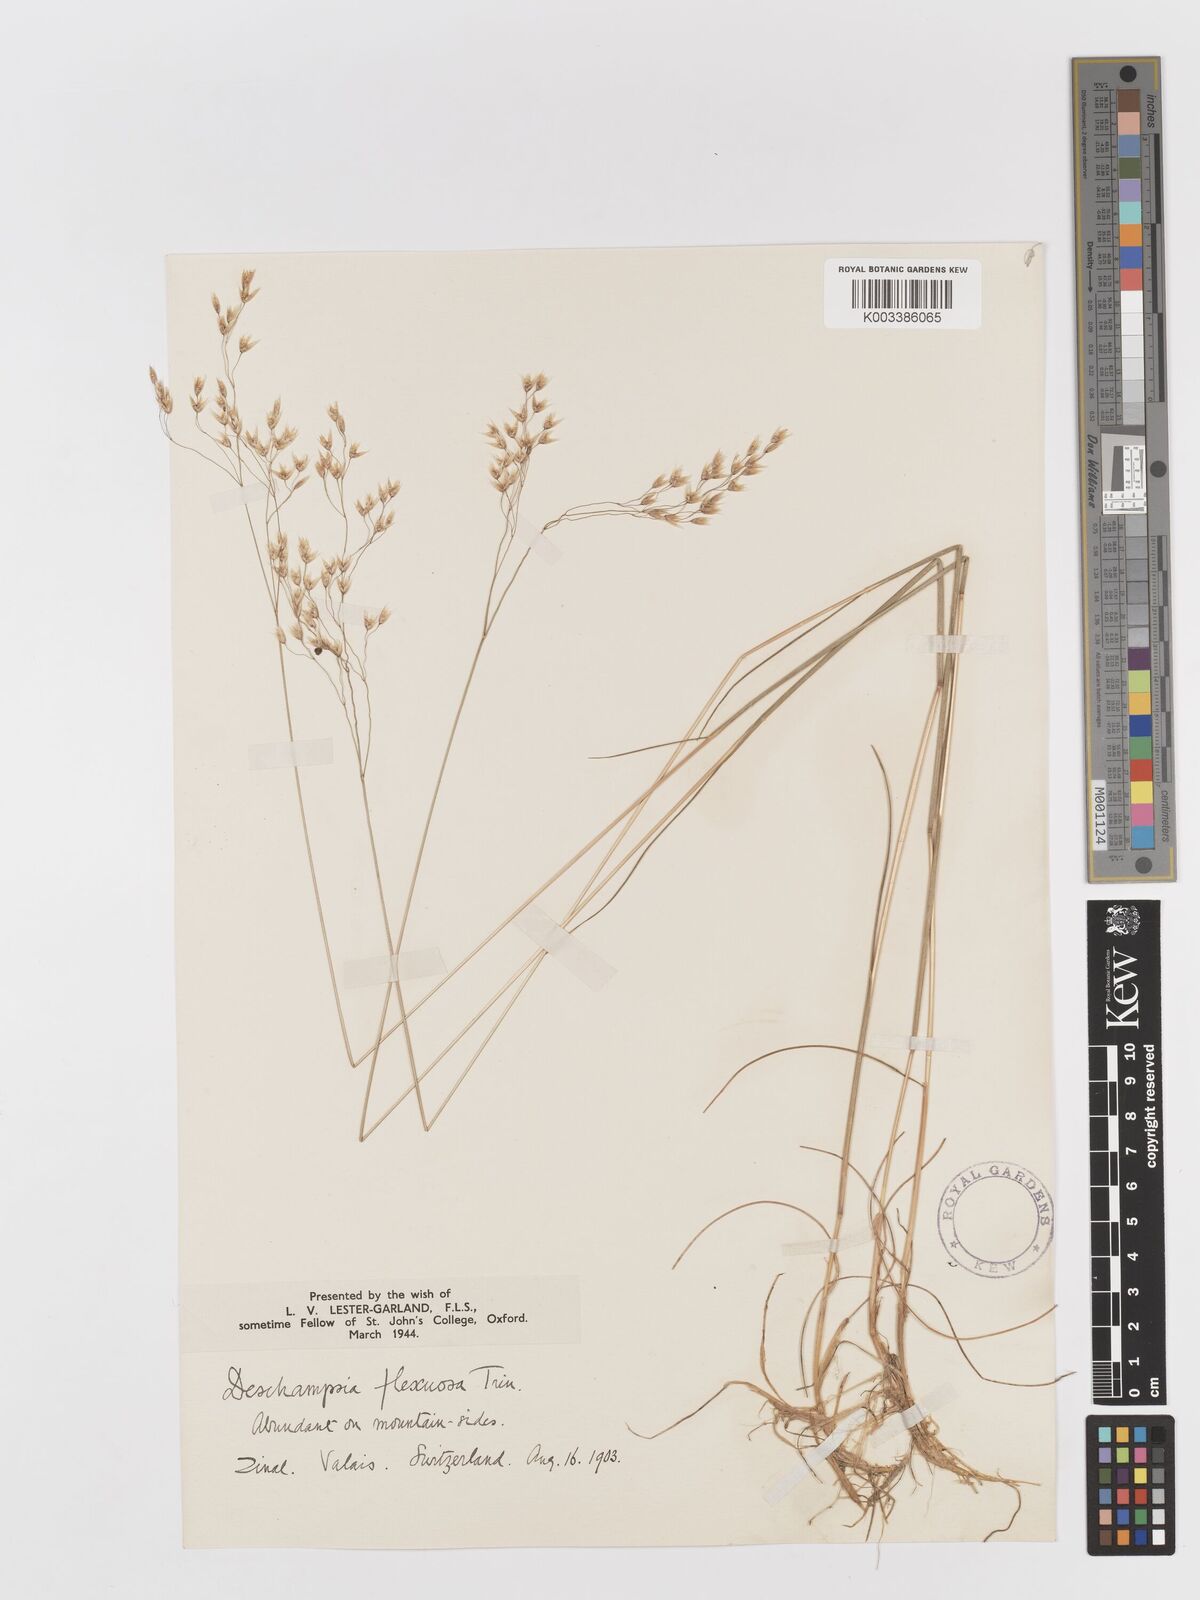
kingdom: Plantae
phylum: Tracheophyta
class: Liliopsida
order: Poales
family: Poaceae
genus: Avenella
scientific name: Avenella flexuosa
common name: Wavy hairgrass
